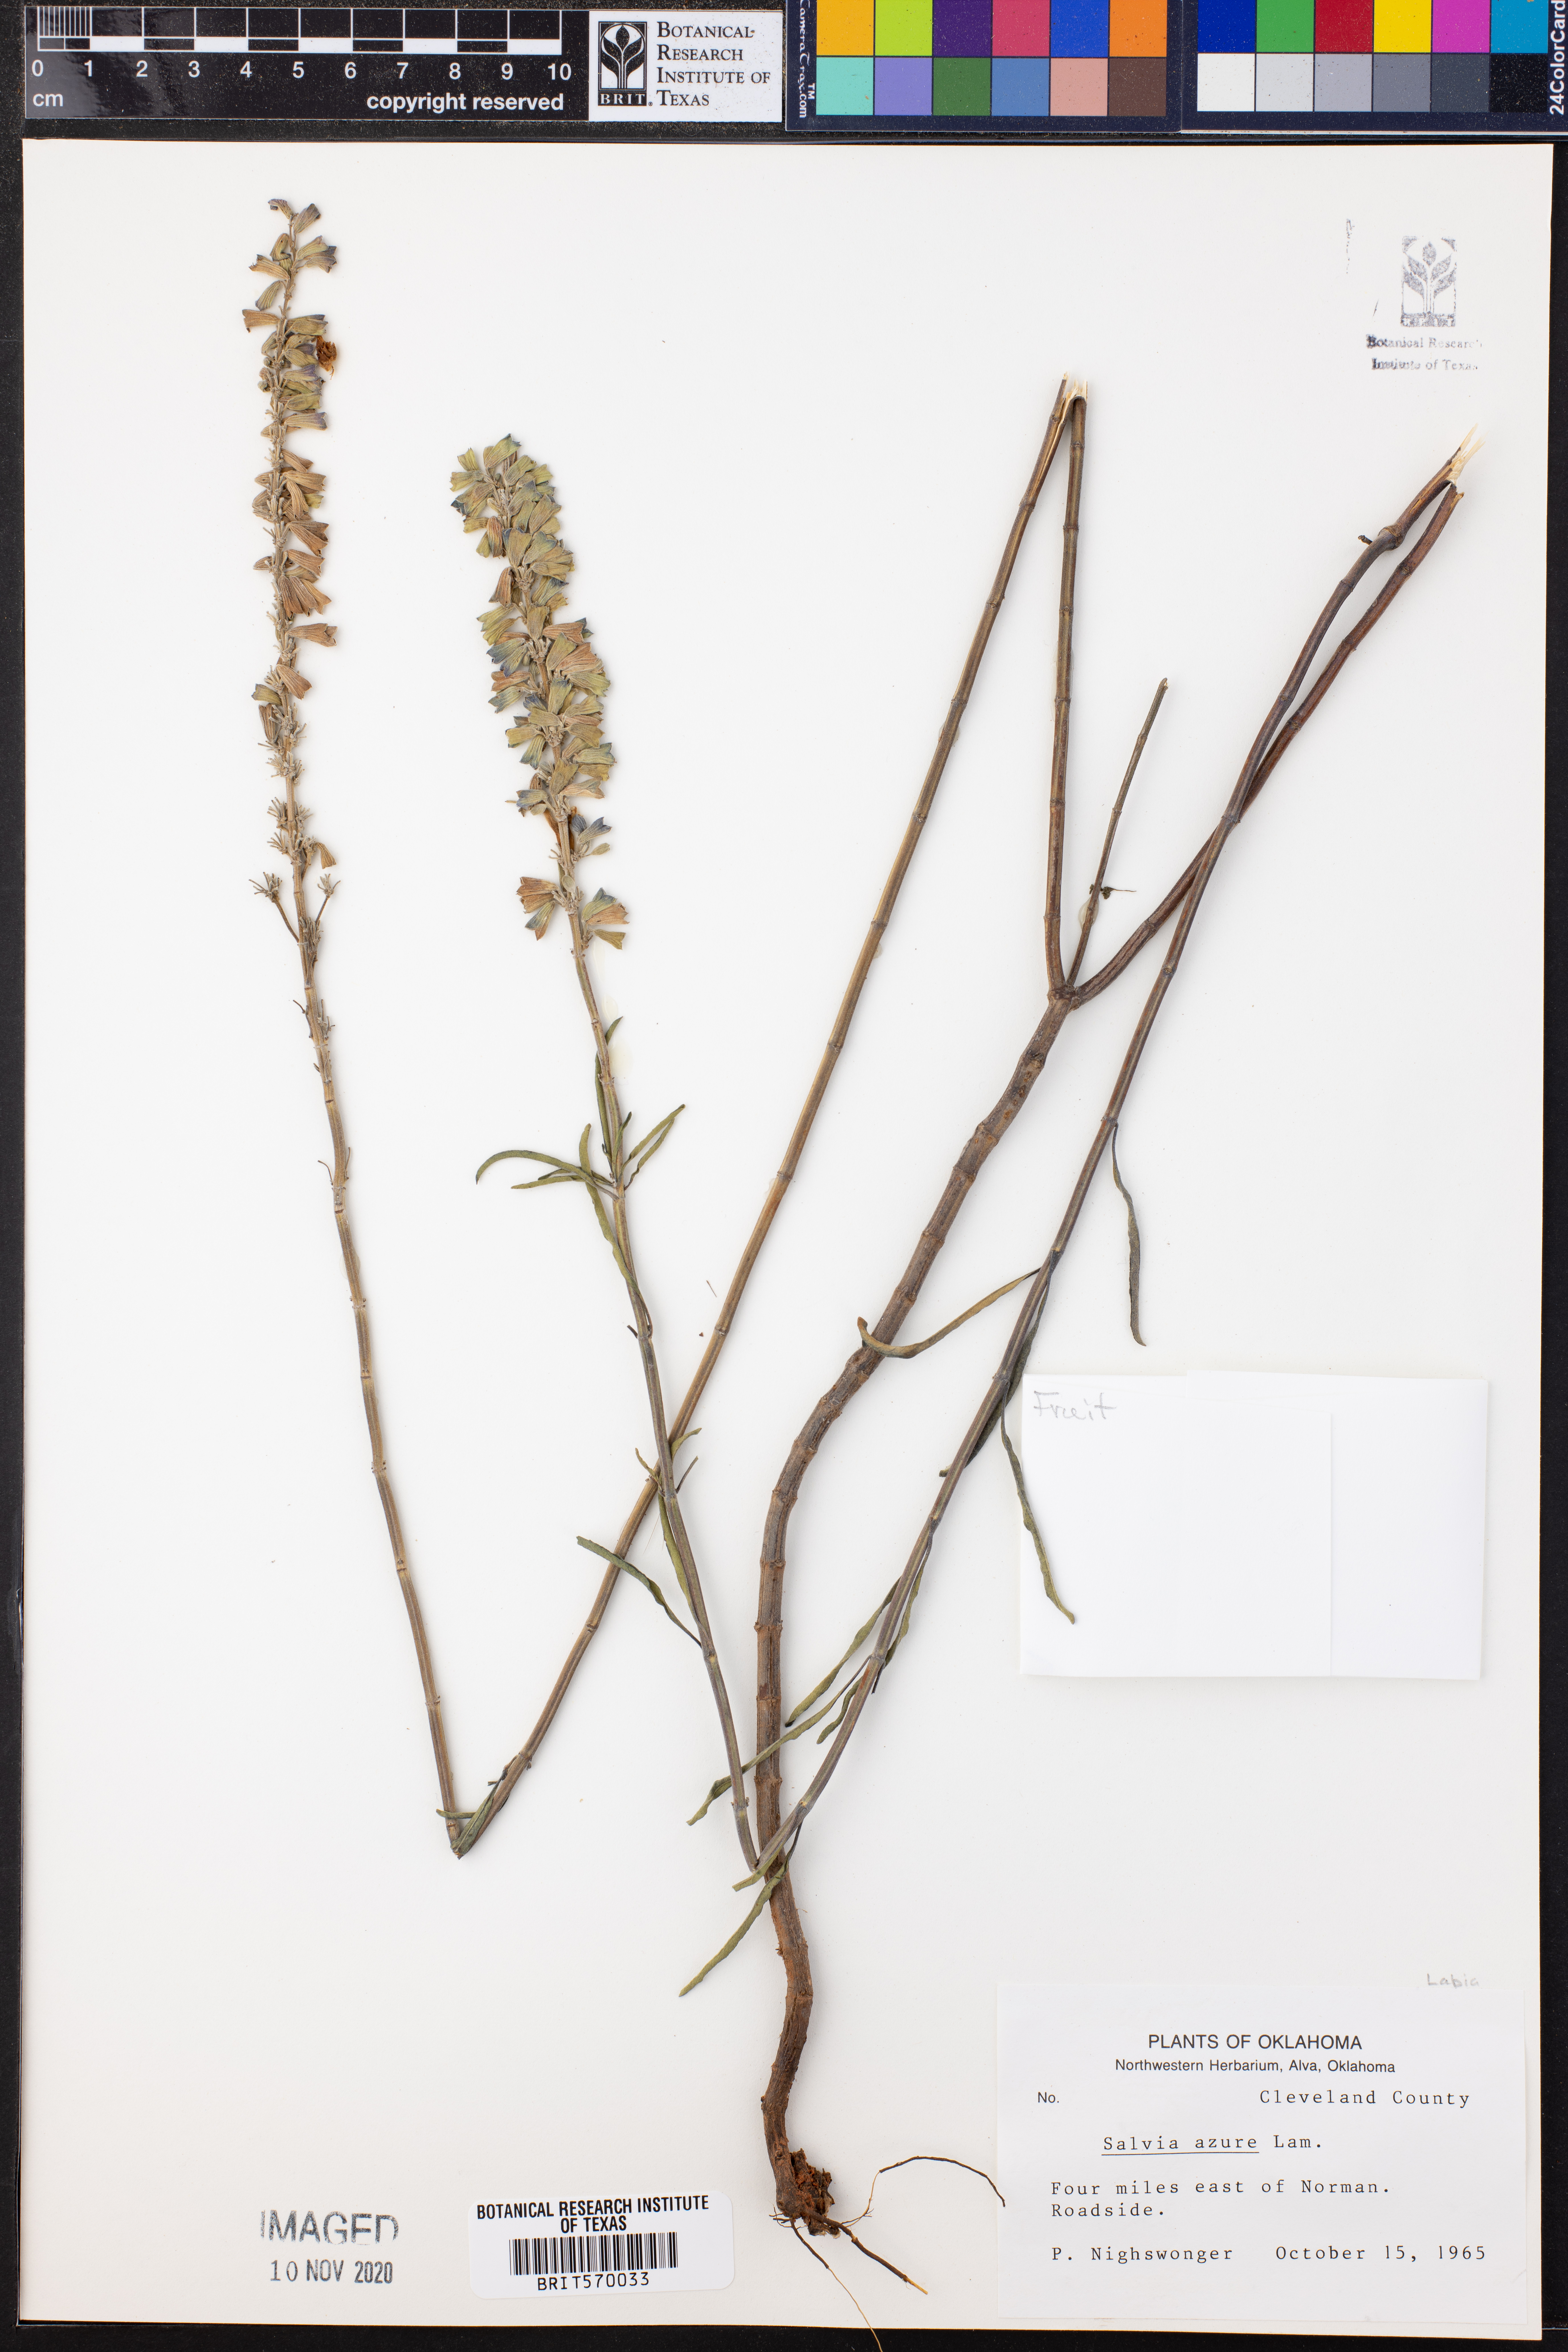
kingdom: Plantae
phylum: Tracheophyta
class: Magnoliopsida
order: Lamiales
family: Lamiaceae
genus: Salvia
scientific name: Salvia azurea
